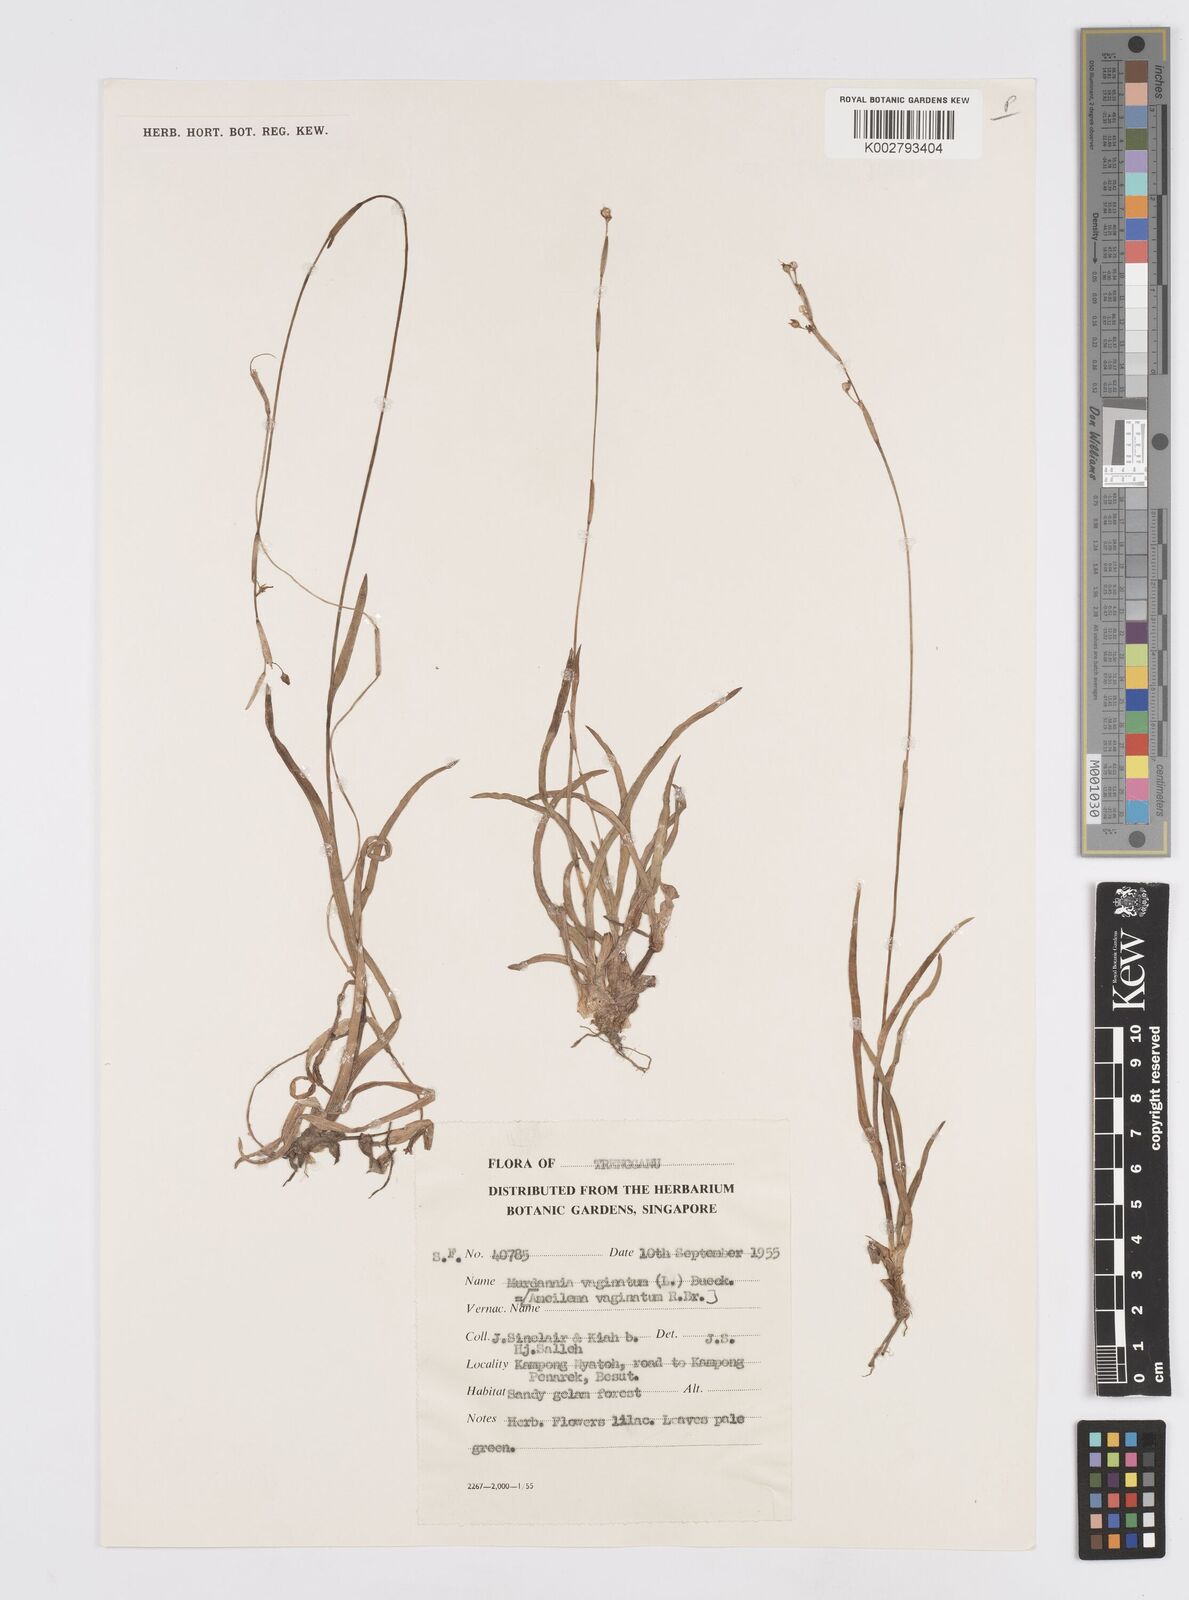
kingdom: Plantae
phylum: Tracheophyta
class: Liliopsida
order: Commelinales
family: Commelinaceae
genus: Murdannia
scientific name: Murdannia vaginata
